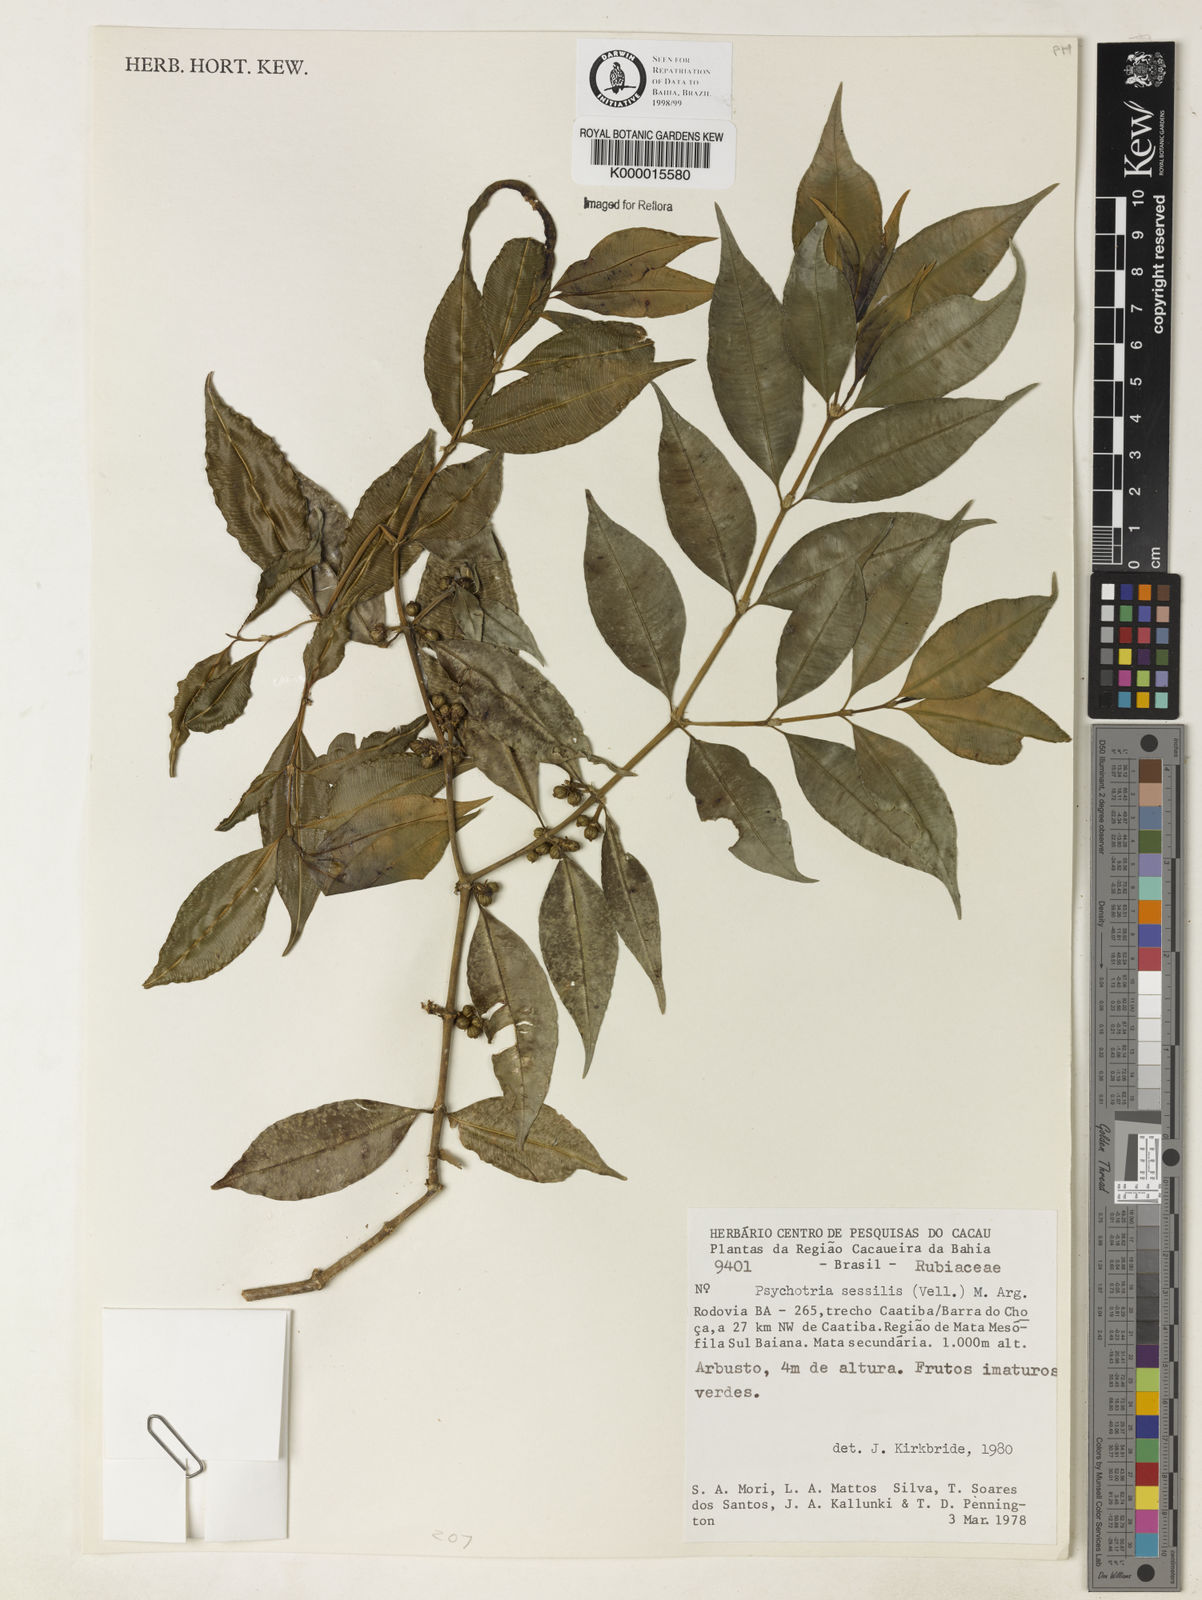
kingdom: Plantae
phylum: Tracheophyta
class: Magnoliopsida
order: Gentianales
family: Rubiaceae
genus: Psychotria
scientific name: Psychotria
